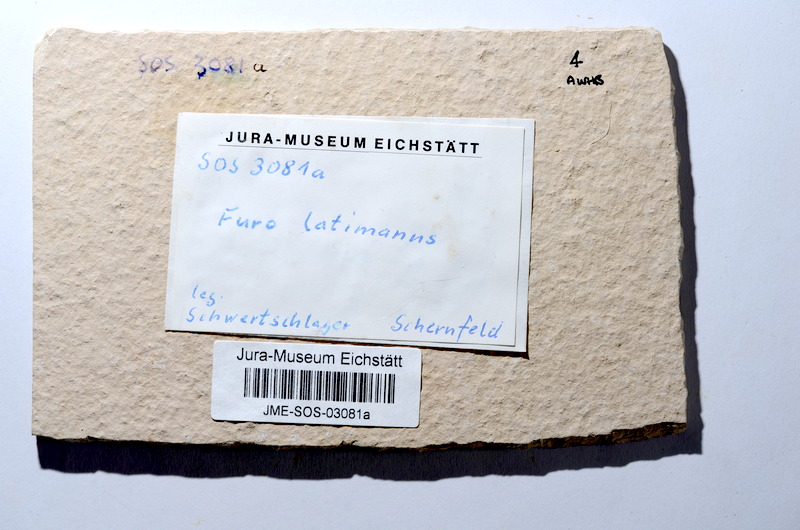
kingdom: Animalia
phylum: Chordata
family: Ophiopsiellidae
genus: Furo
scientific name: Furo latimanus
